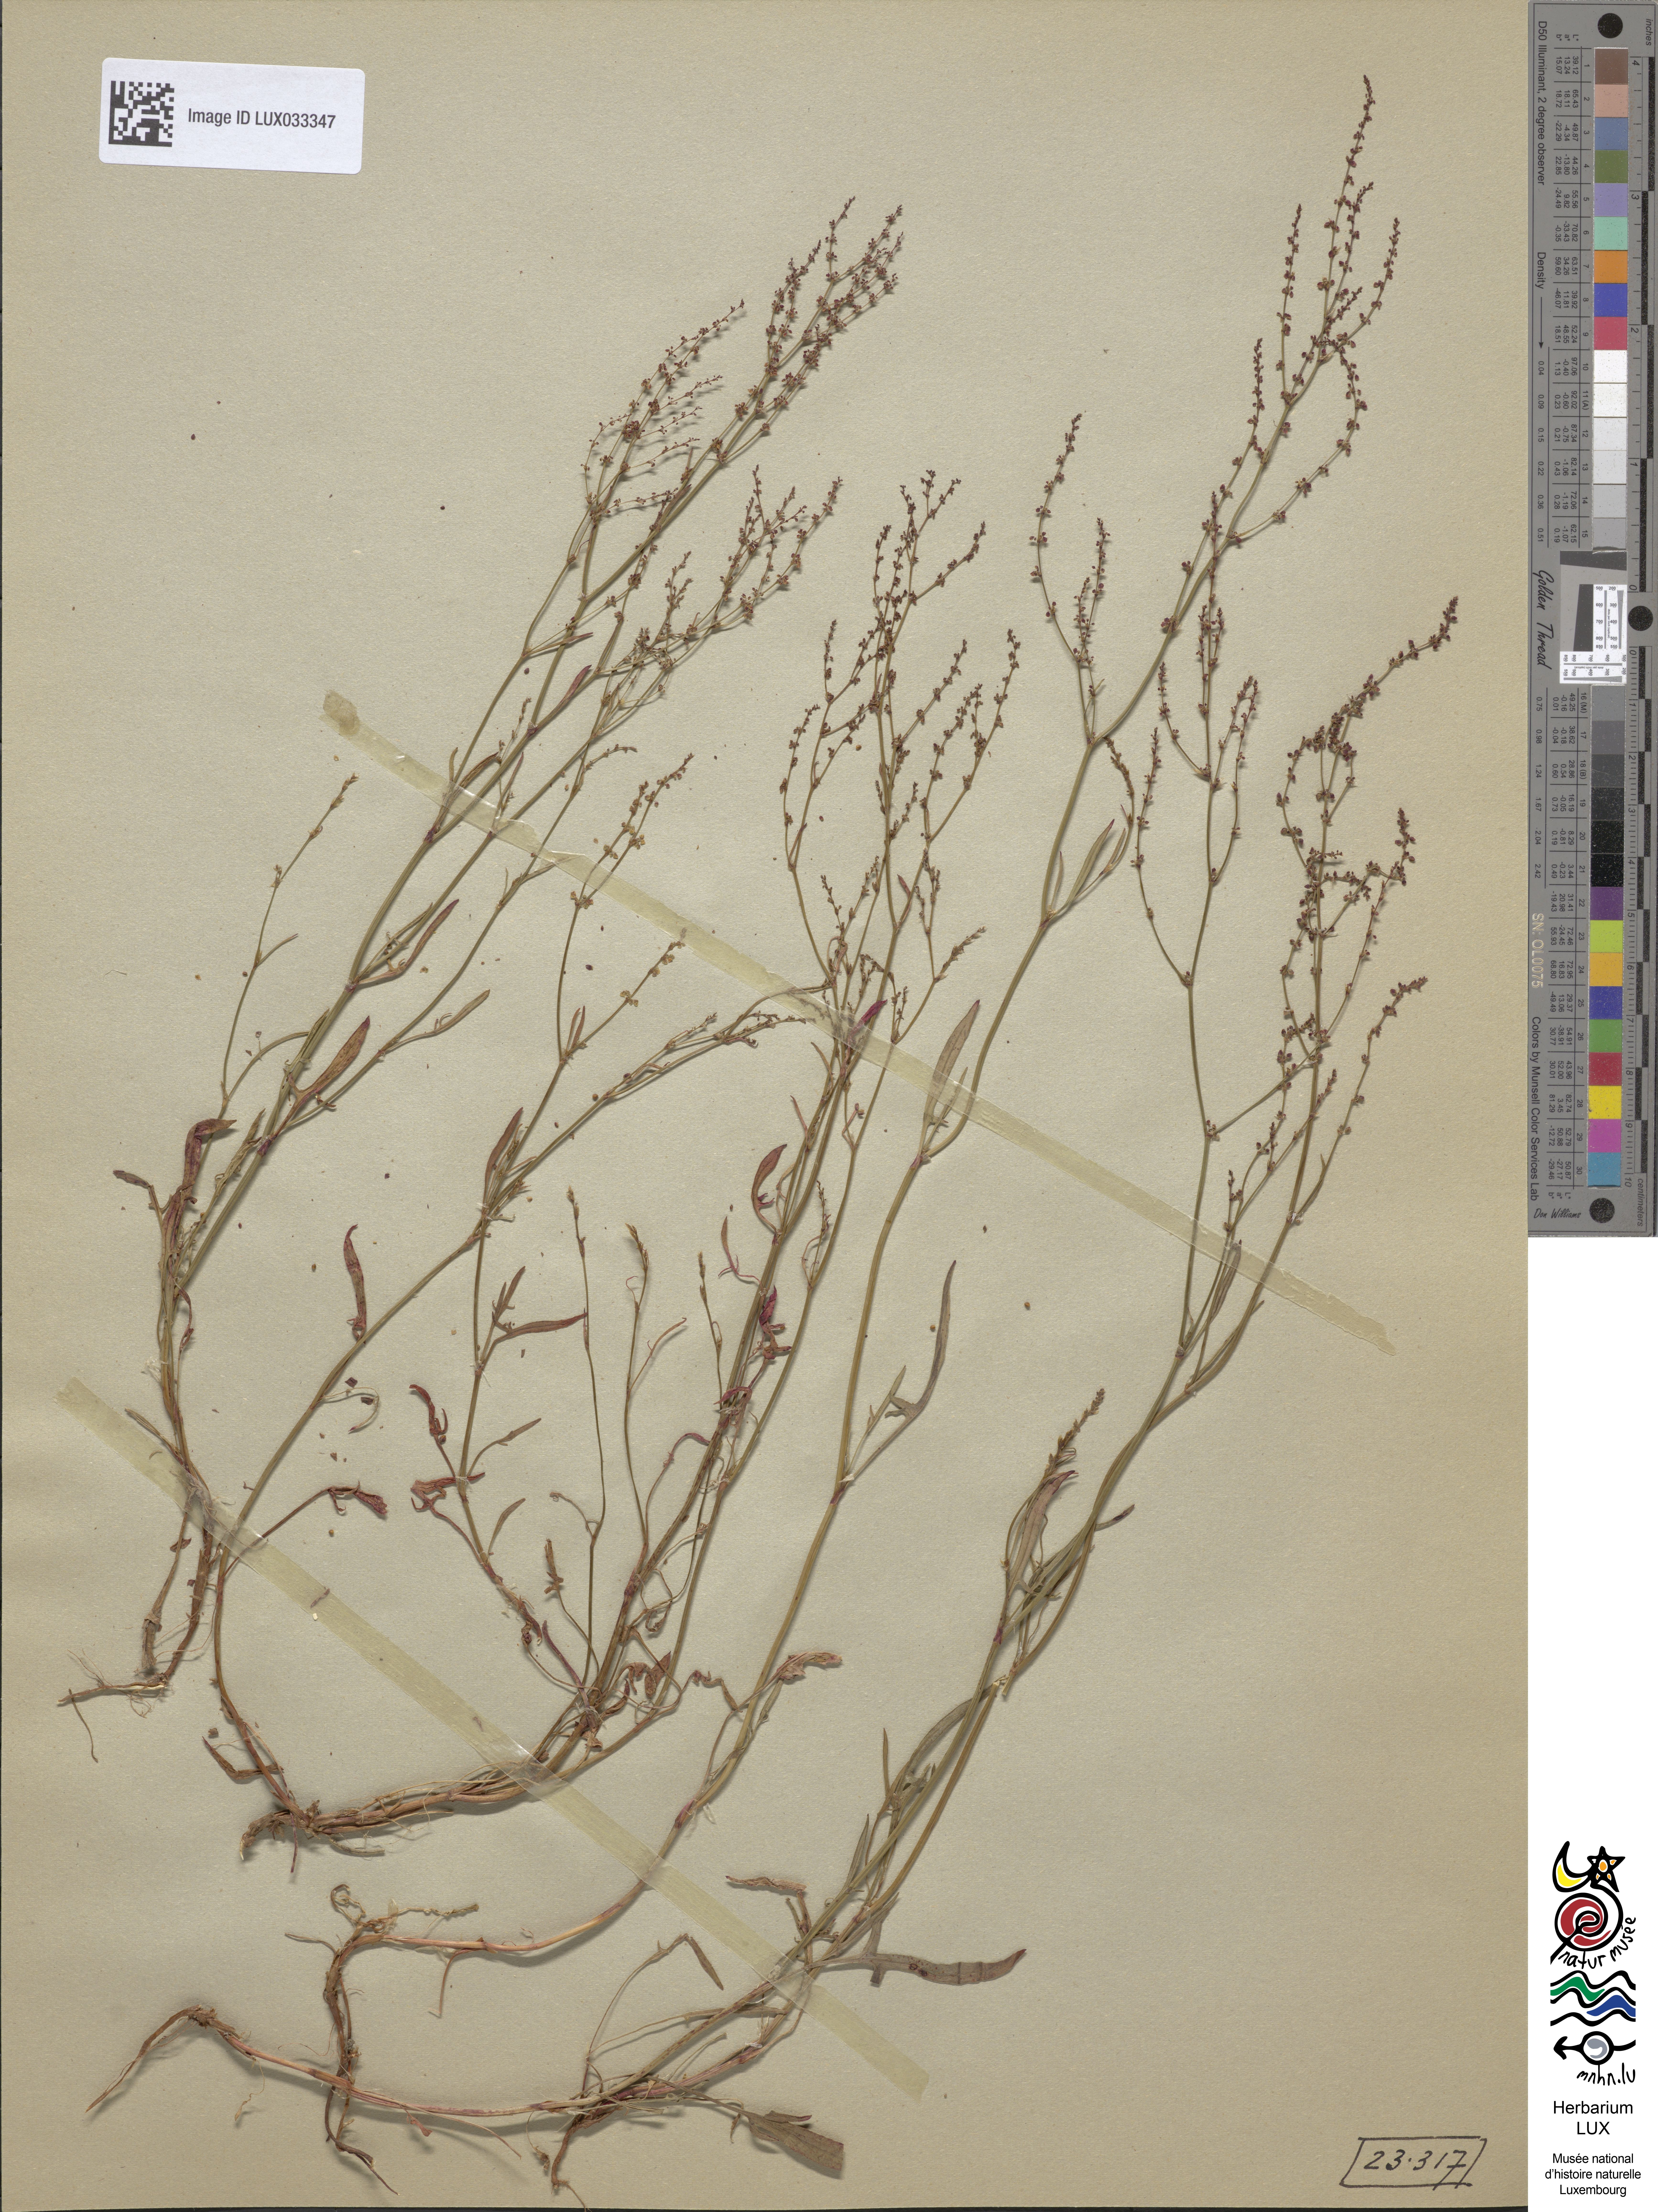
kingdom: Plantae
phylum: Tracheophyta
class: Magnoliopsida
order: Caryophyllales
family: Polygonaceae
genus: Rumex
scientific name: Rumex acetosella
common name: Common sheep sorrel
